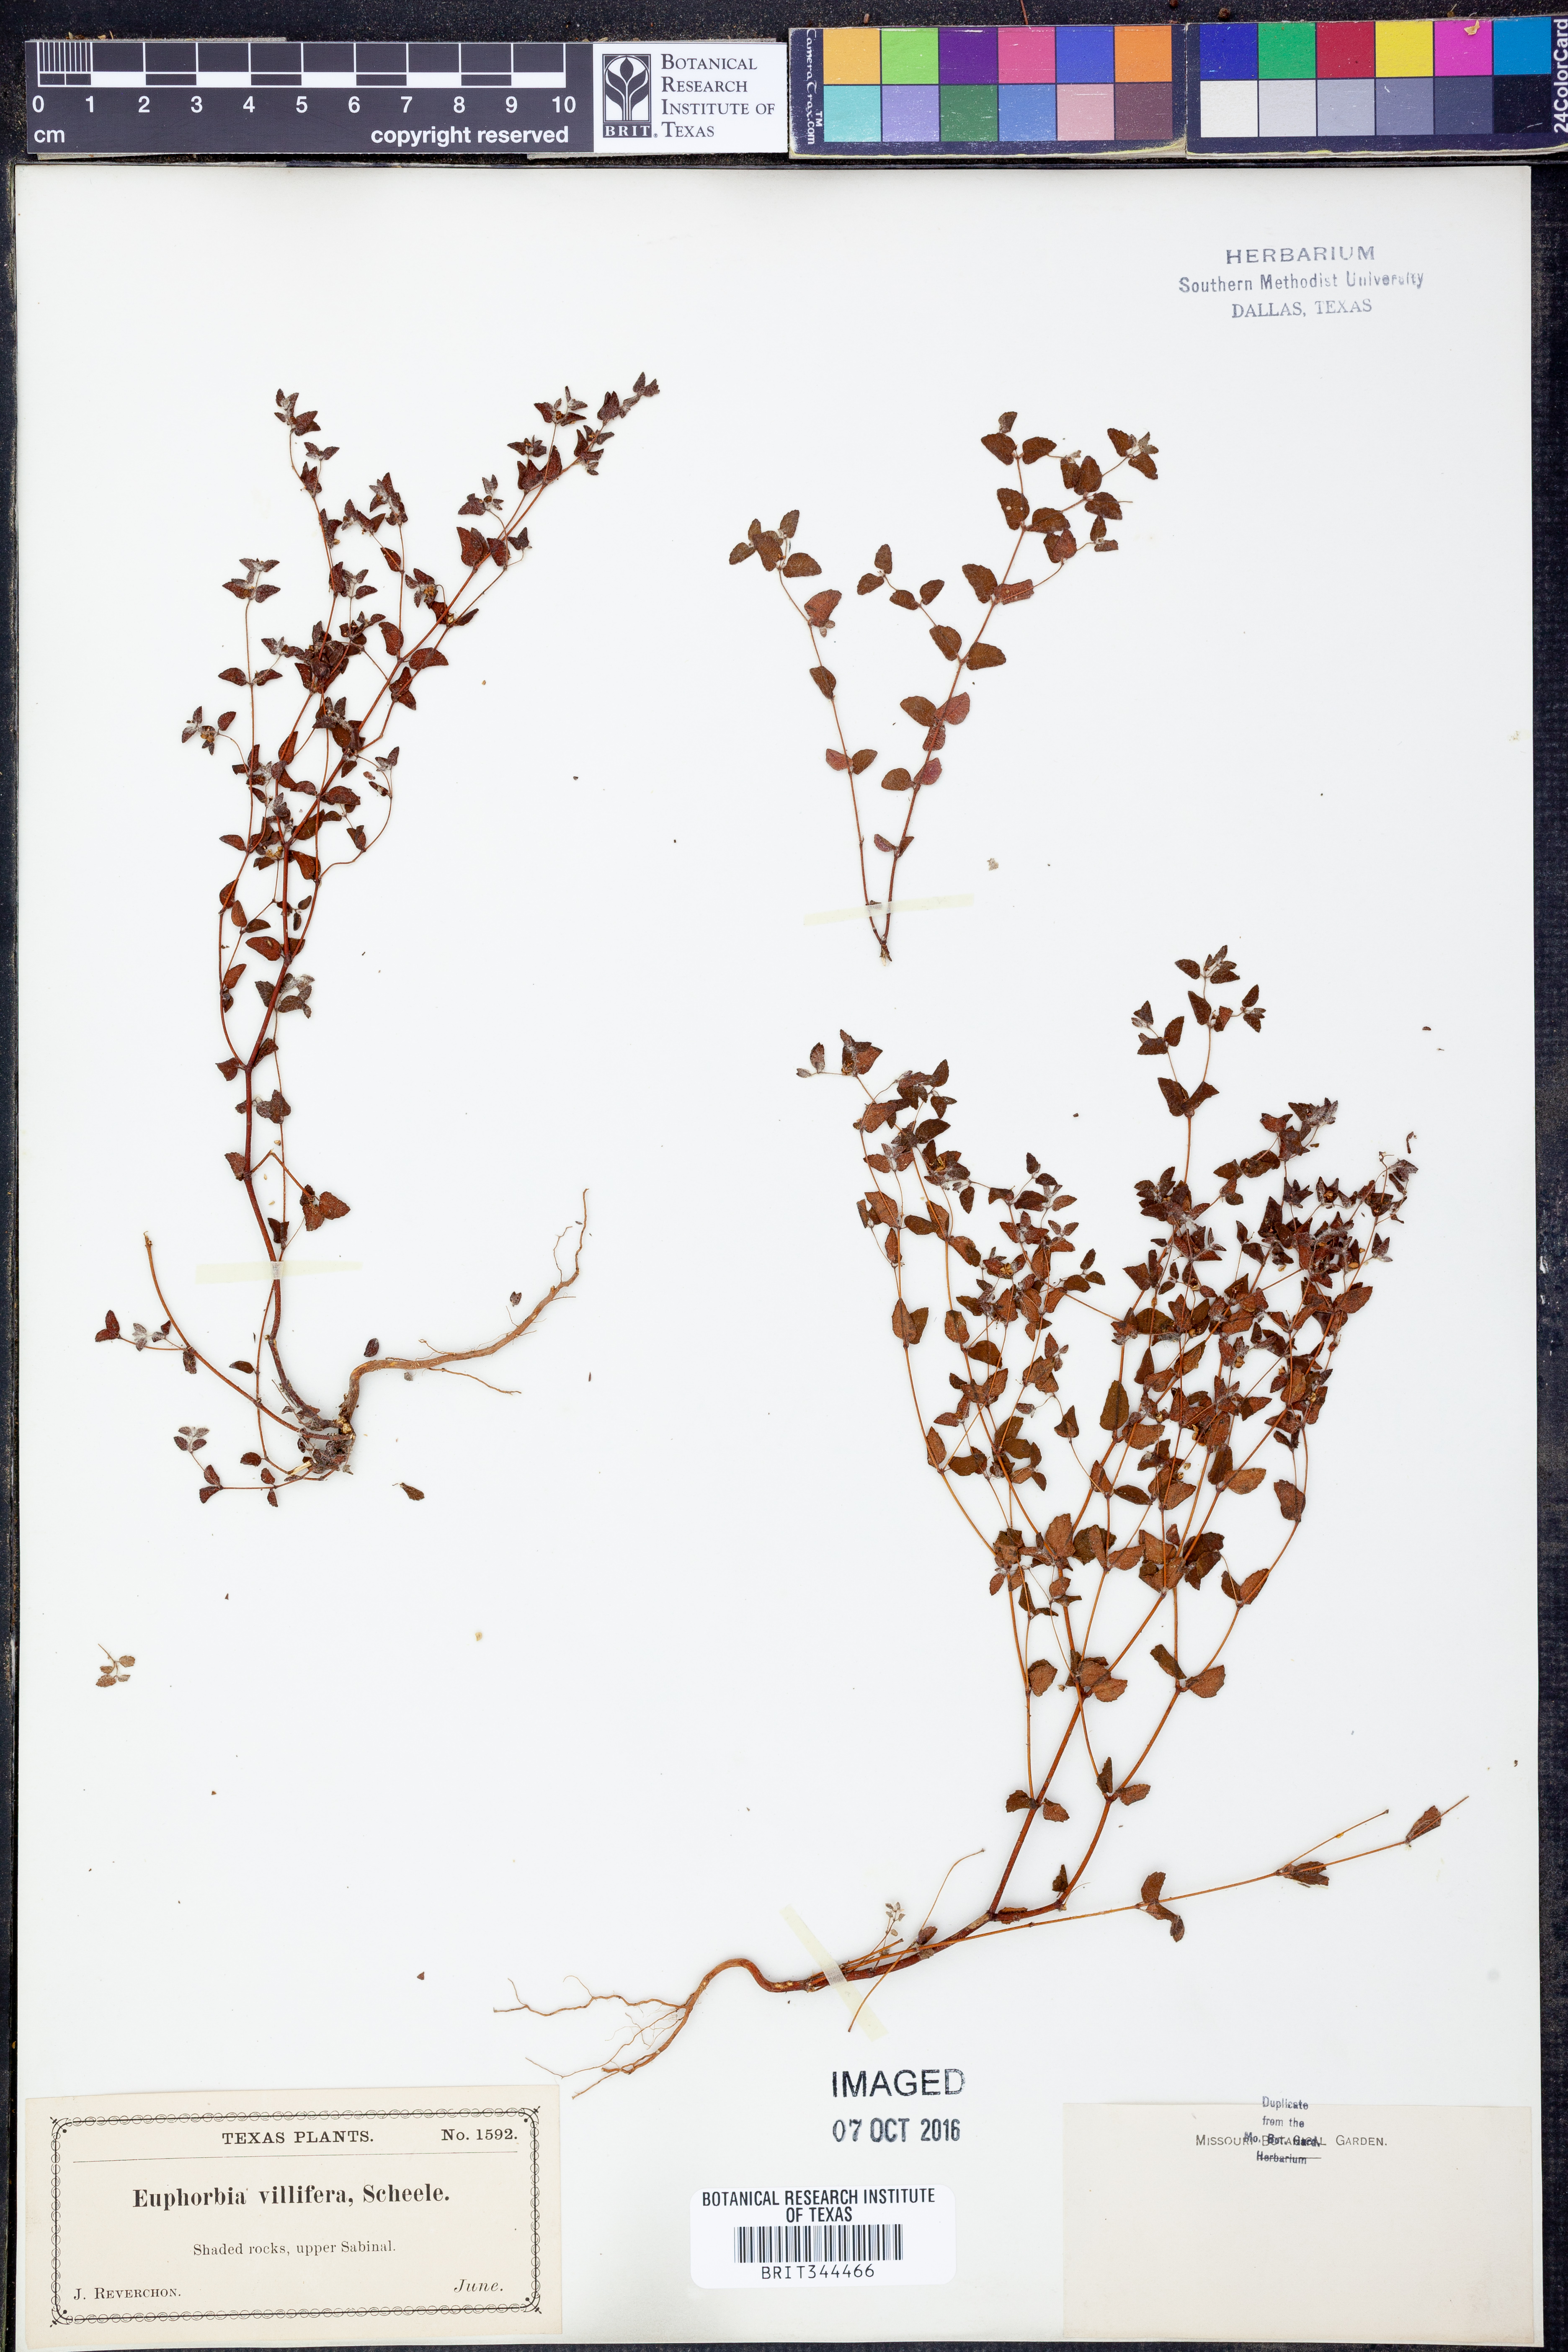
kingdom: Plantae
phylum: Tracheophyta
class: Magnoliopsida
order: Malpighiales
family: Euphorbiaceae
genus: Euphorbia
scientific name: Euphorbia micractina
